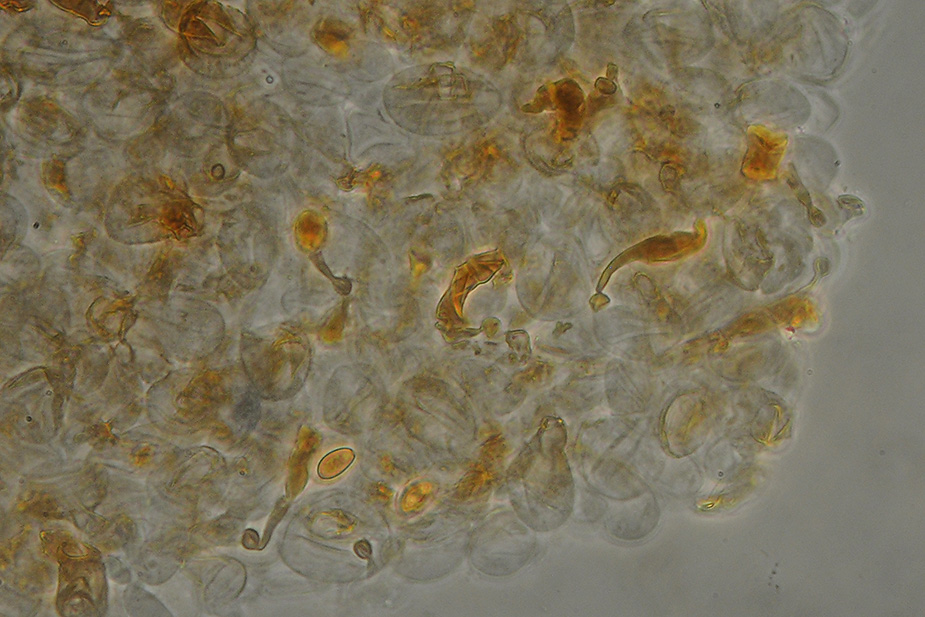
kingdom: Fungi
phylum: Basidiomycota
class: Agaricomycetes
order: Agaricales
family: Bolbitiaceae
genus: Conocybe
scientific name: Conocybe mesospora
